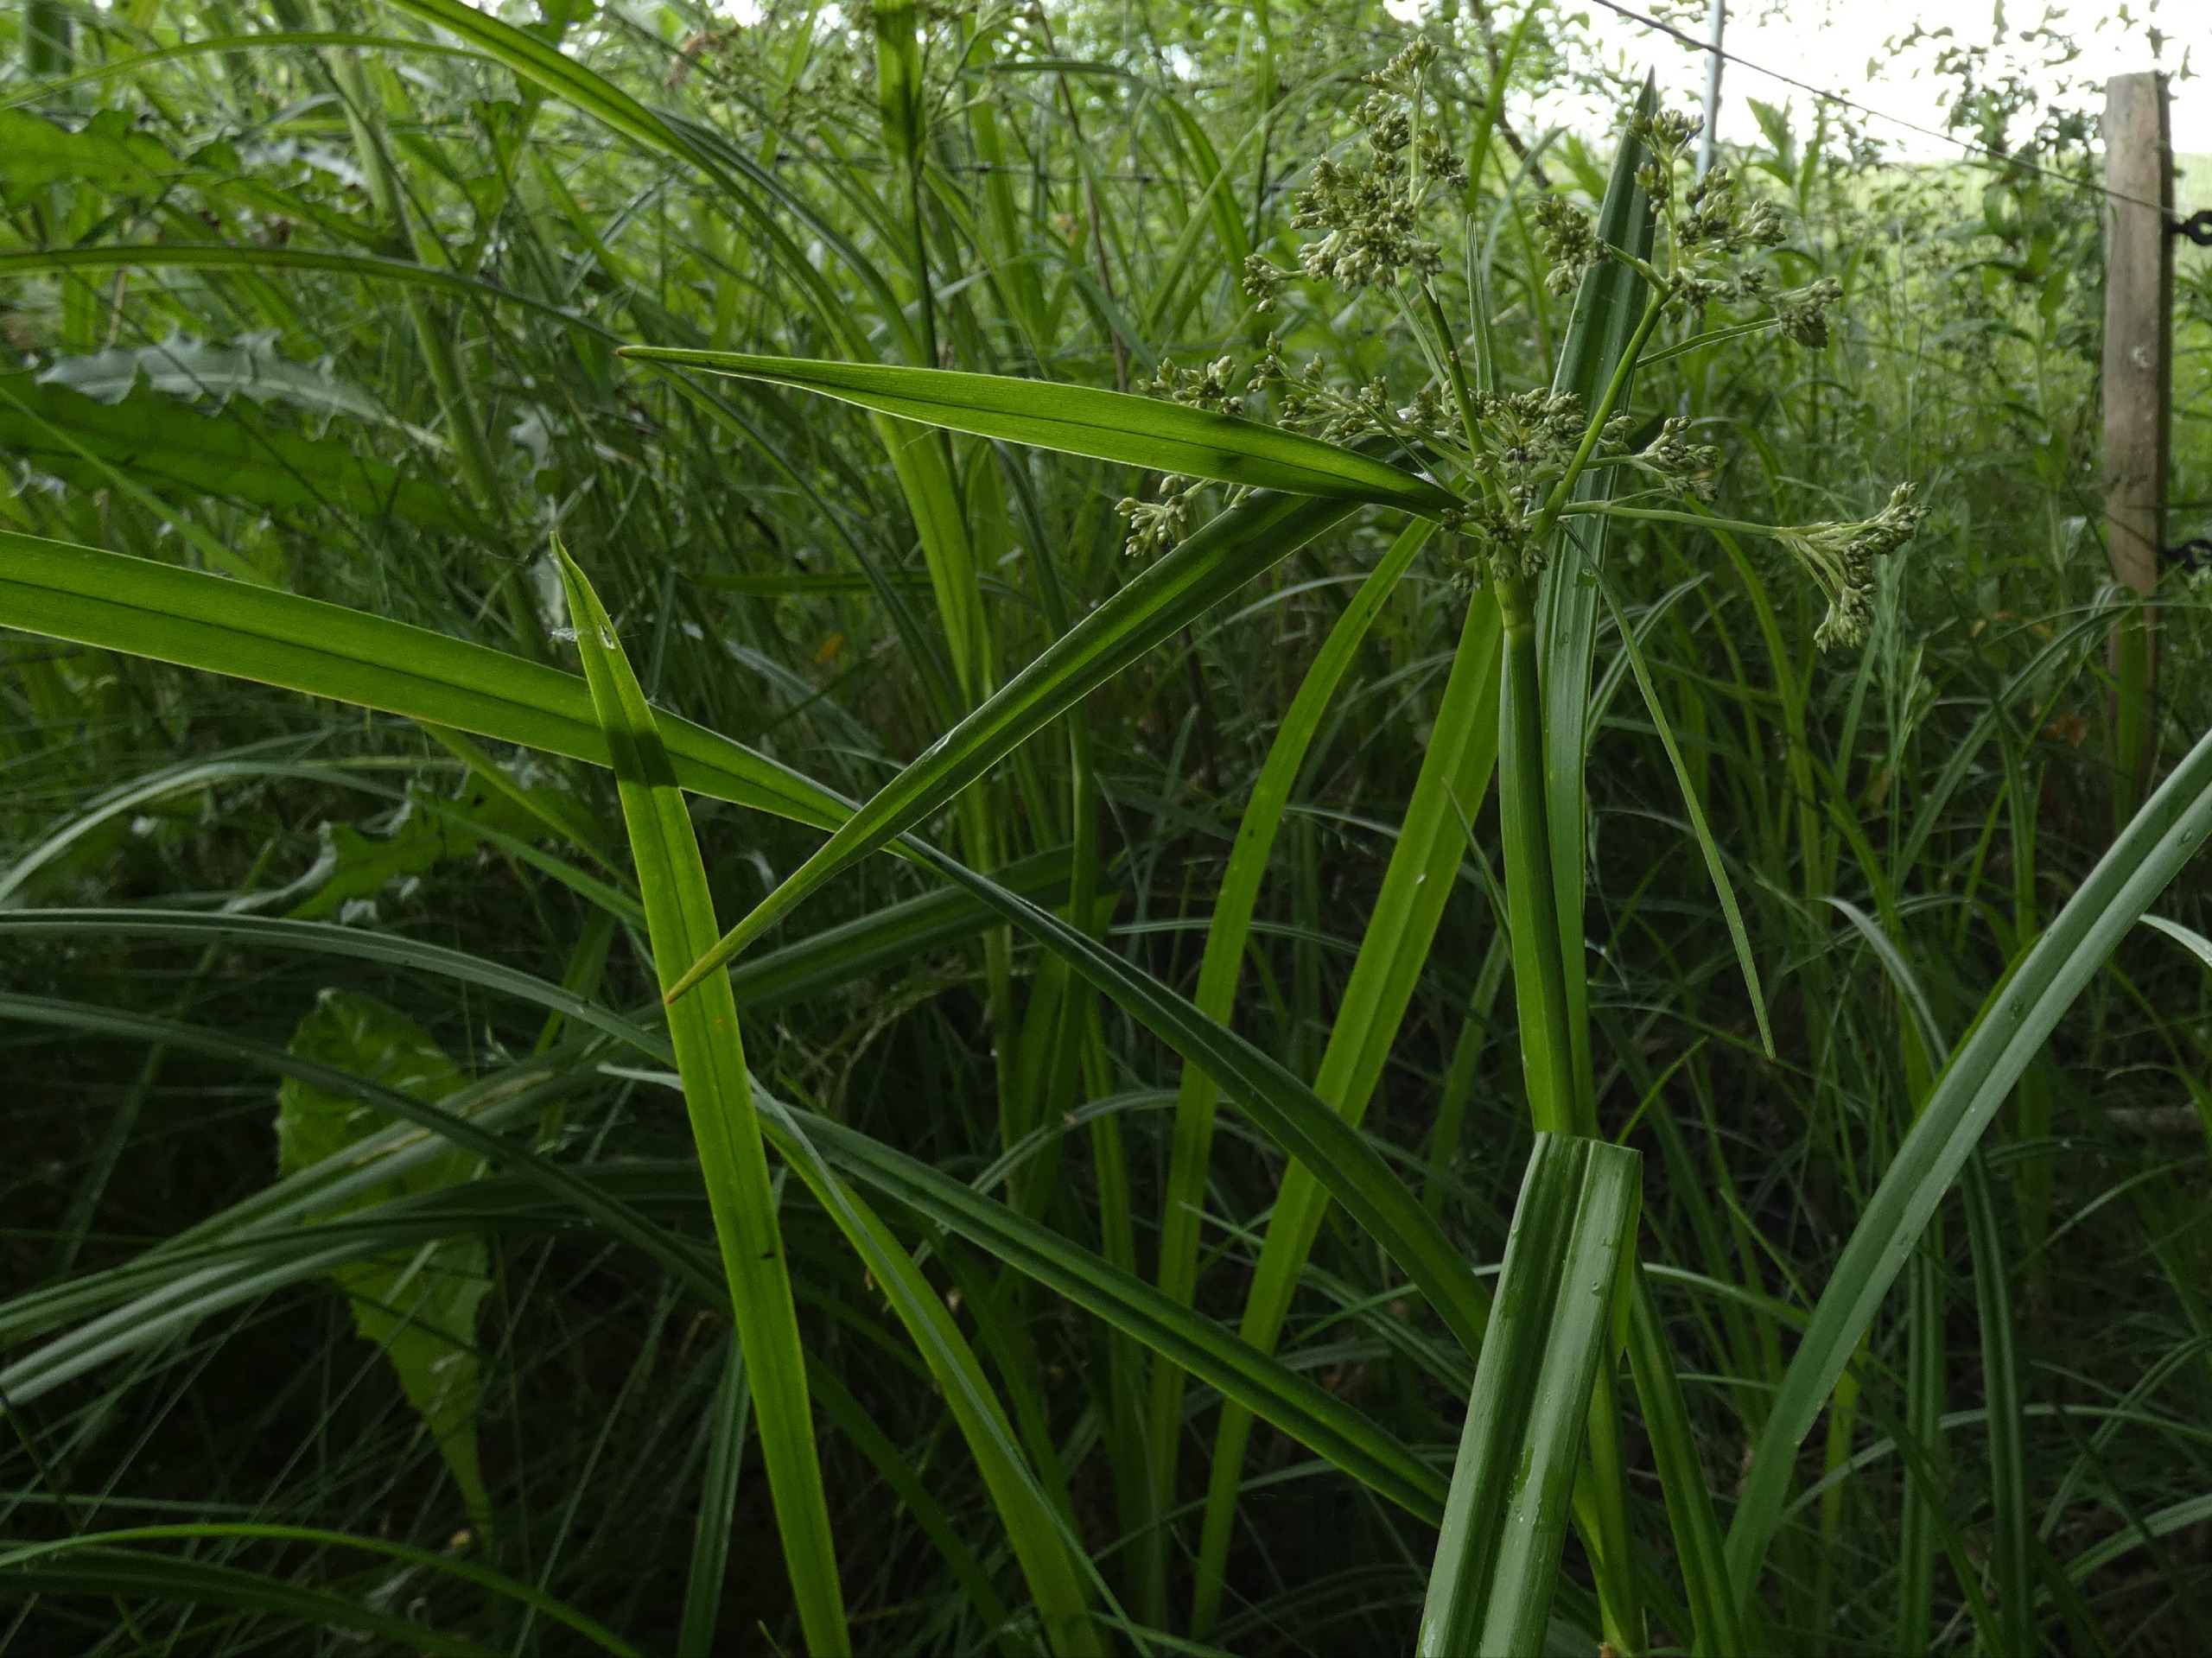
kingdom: Plantae
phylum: Tracheophyta
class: Liliopsida
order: Poales
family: Cyperaceae
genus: Scirpus
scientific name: Scirpus sylvaticus
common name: Skov-kogleaks
